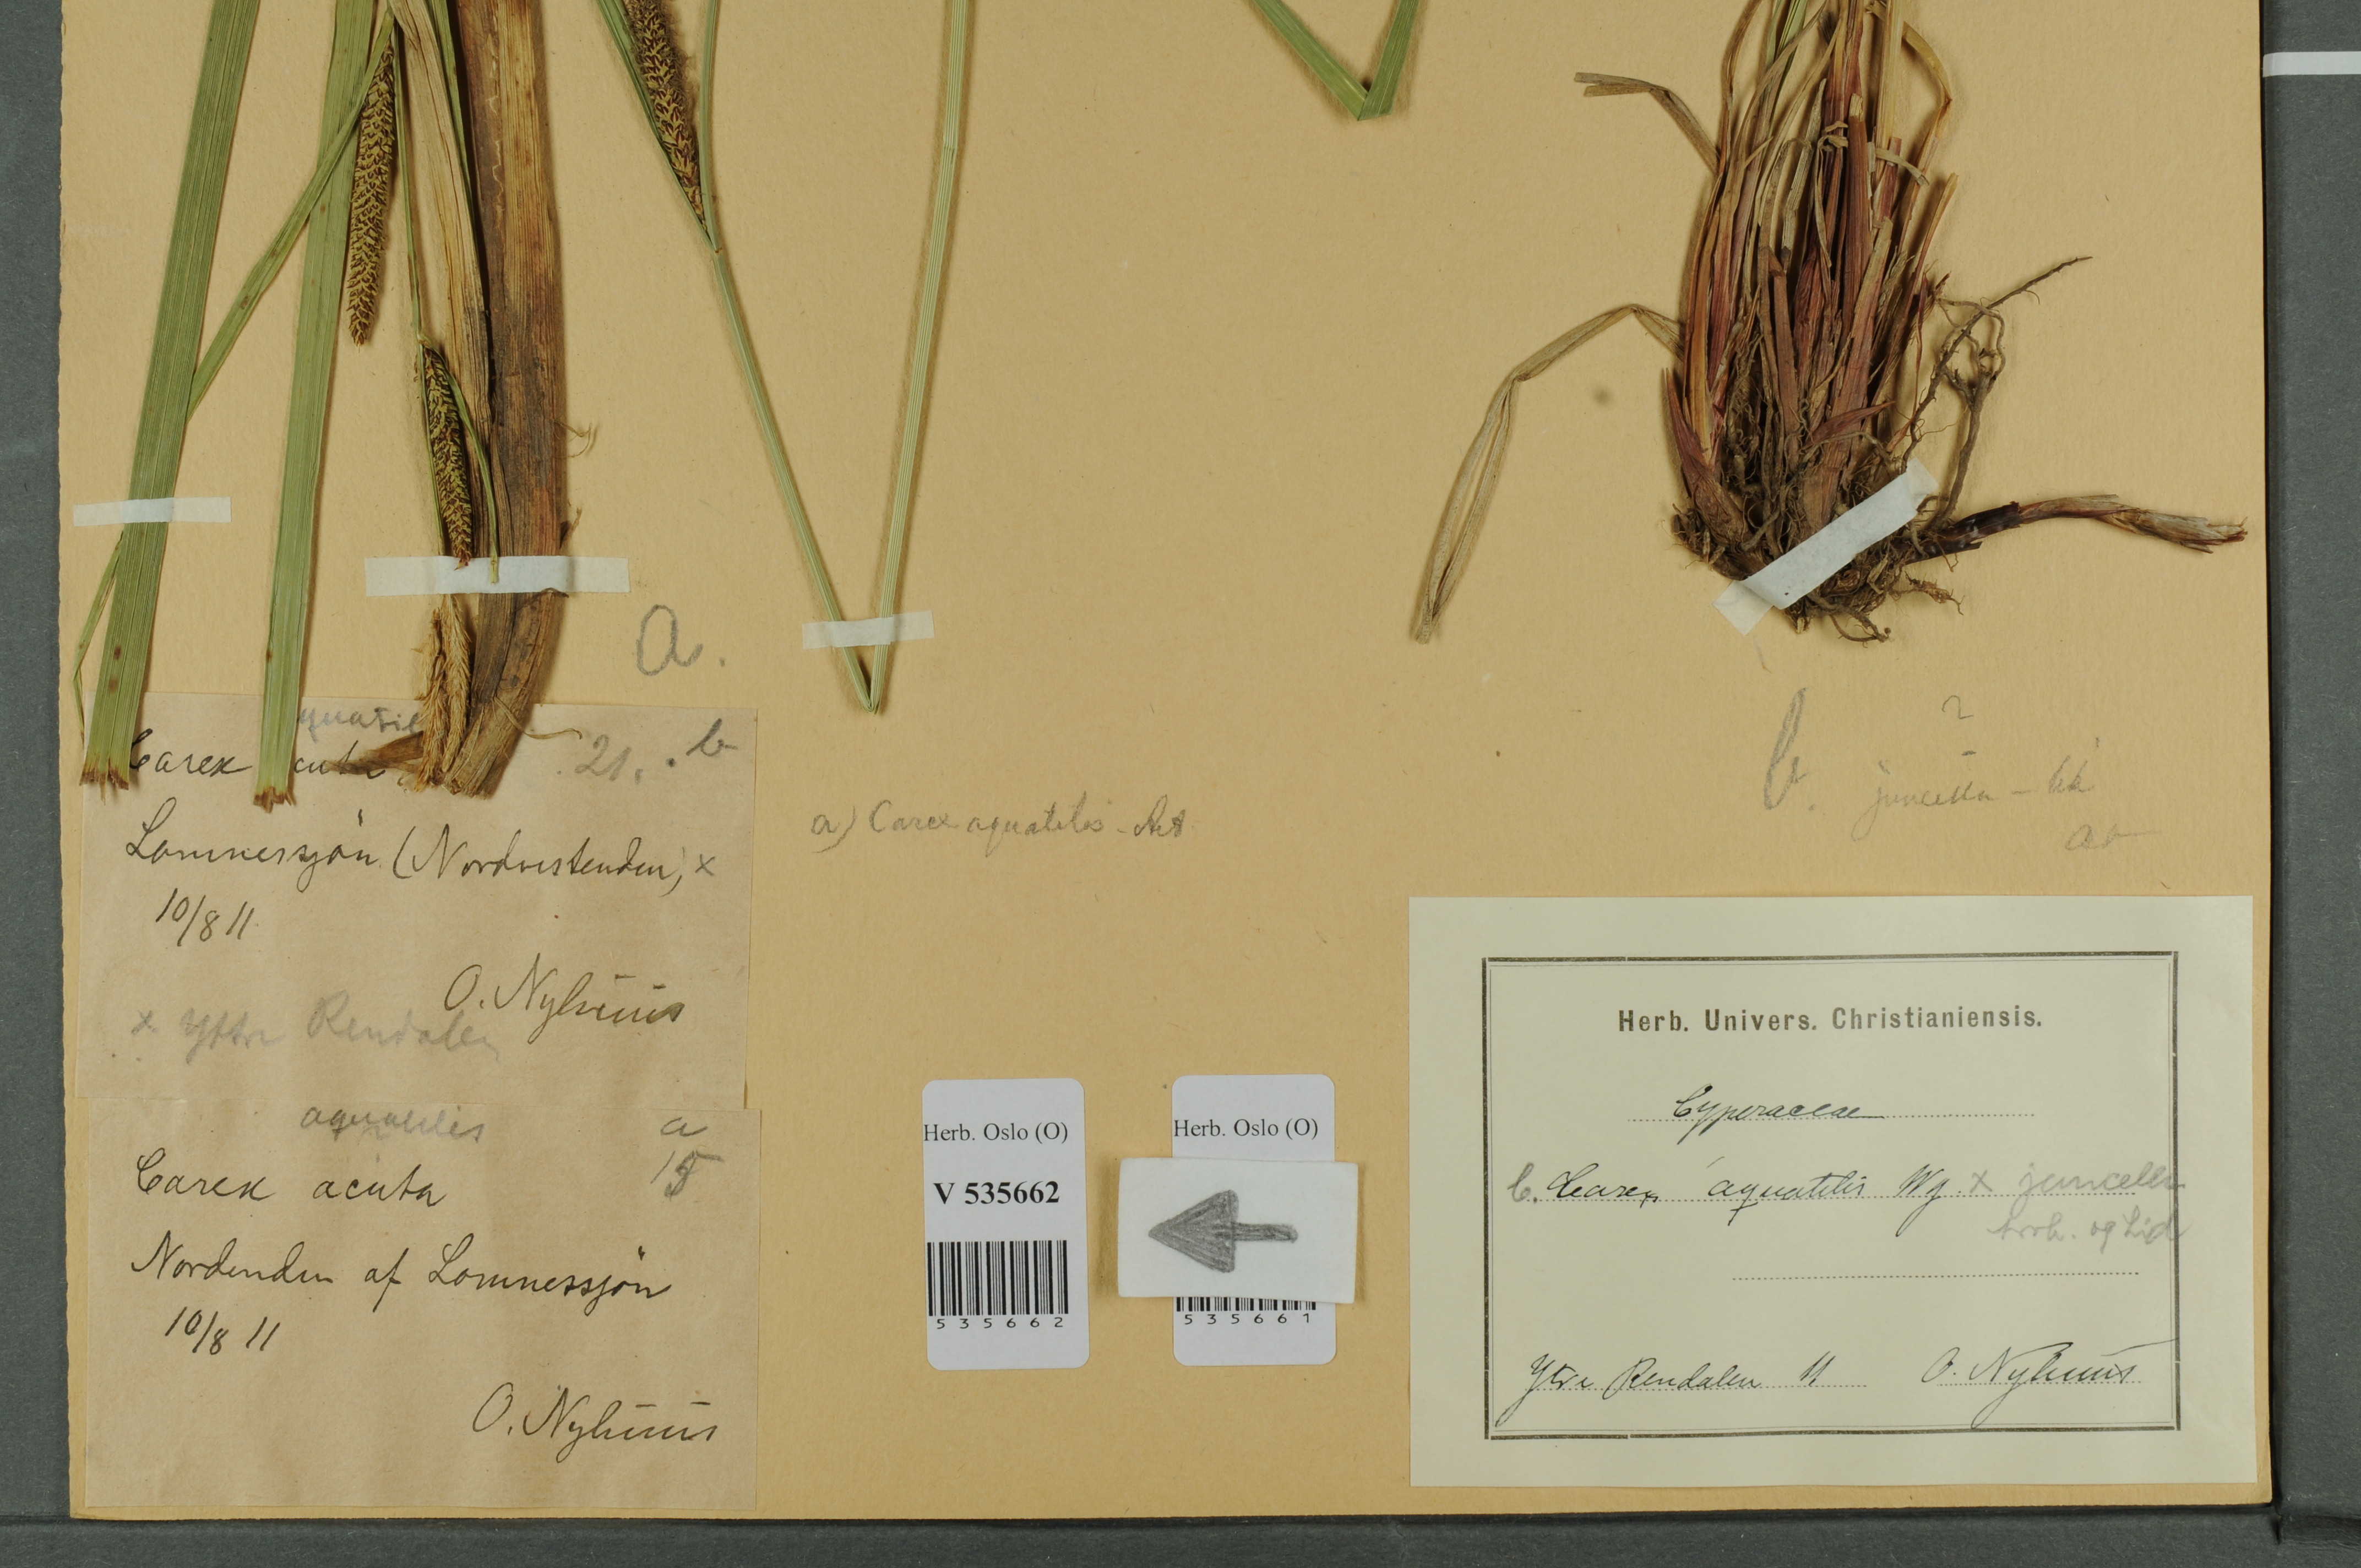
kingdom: Plantae
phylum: Tracheophyta
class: Liliopsida
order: Poales
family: Cyperaceae
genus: Carex
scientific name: Carex aquatilis
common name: Water sedge
